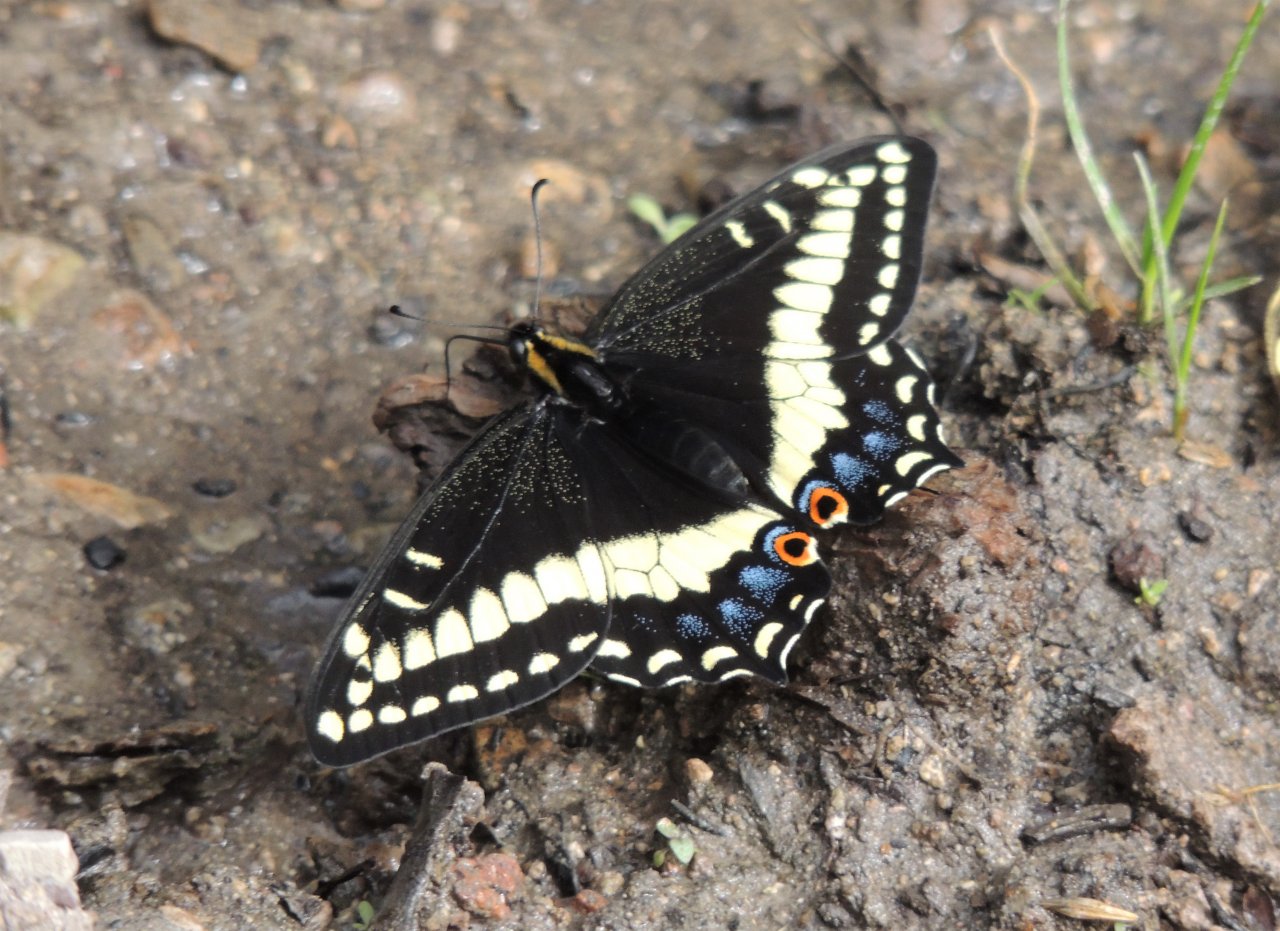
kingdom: Animalia
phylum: Arthropoda
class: Insecta
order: Lepidoptera
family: Papilionidae
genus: Papilio
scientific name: Papilio indra
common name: Indra Swallowtail
